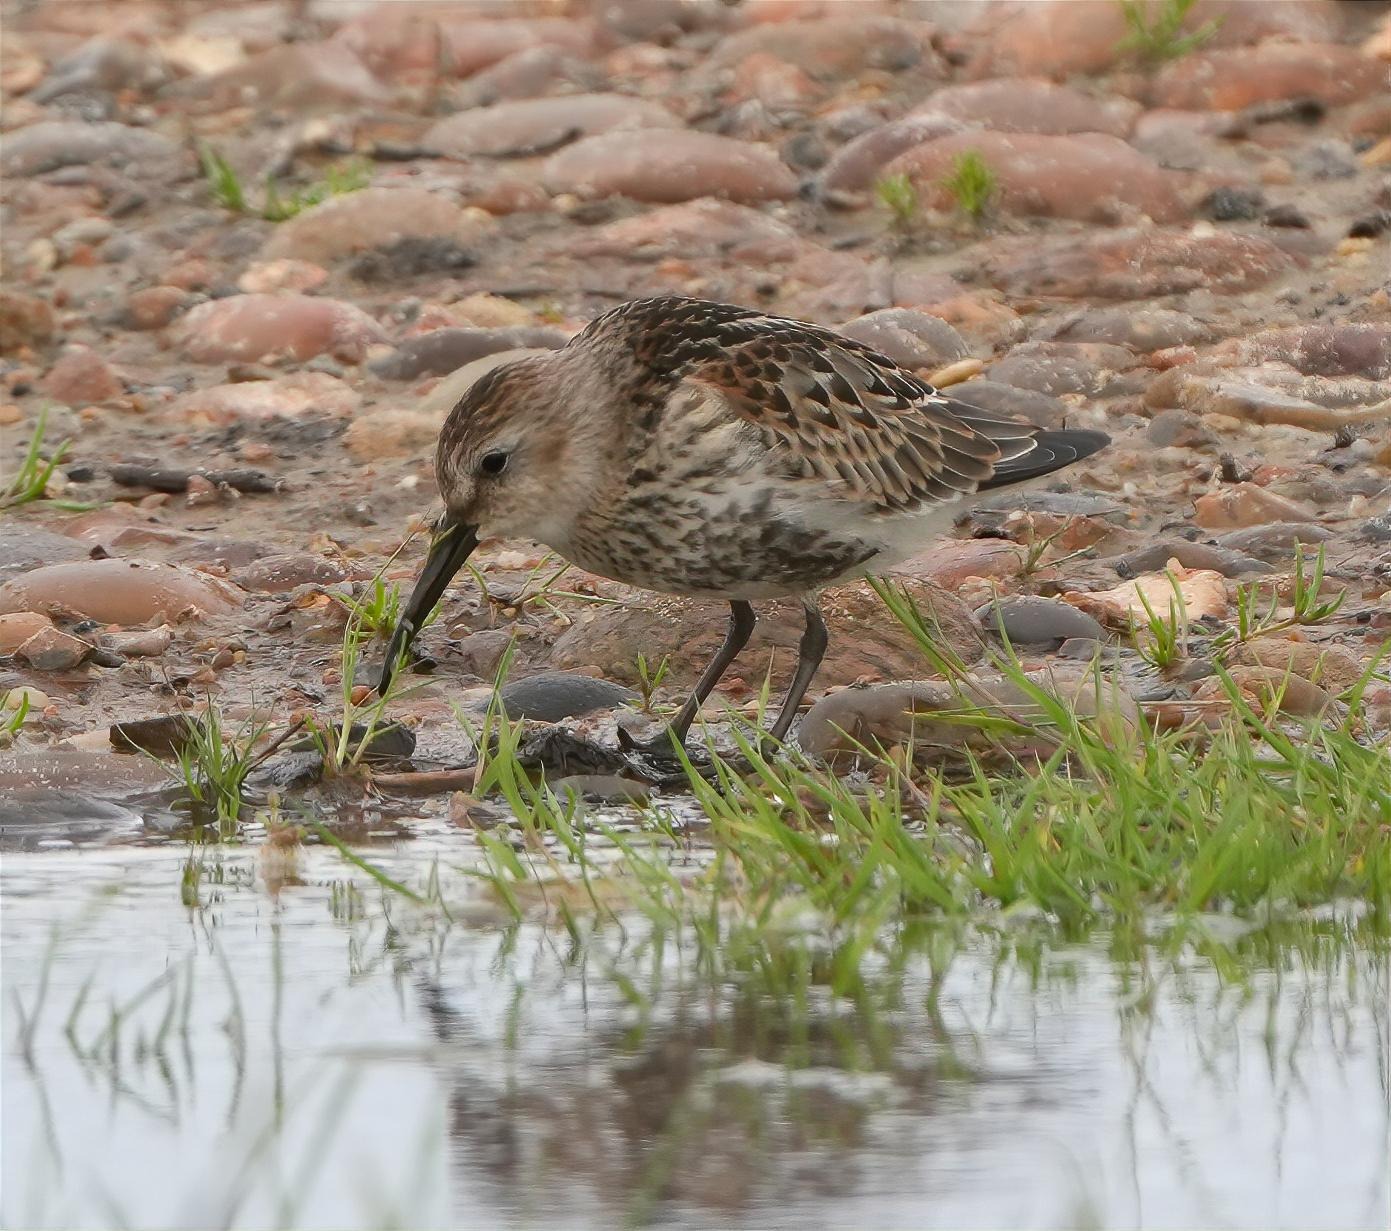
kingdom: Animalia
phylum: Chordata
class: Aves
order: Charadriiformes
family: Scolopacidae
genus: Calidris
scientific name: Calidris alpina
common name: Almindelig ryle
